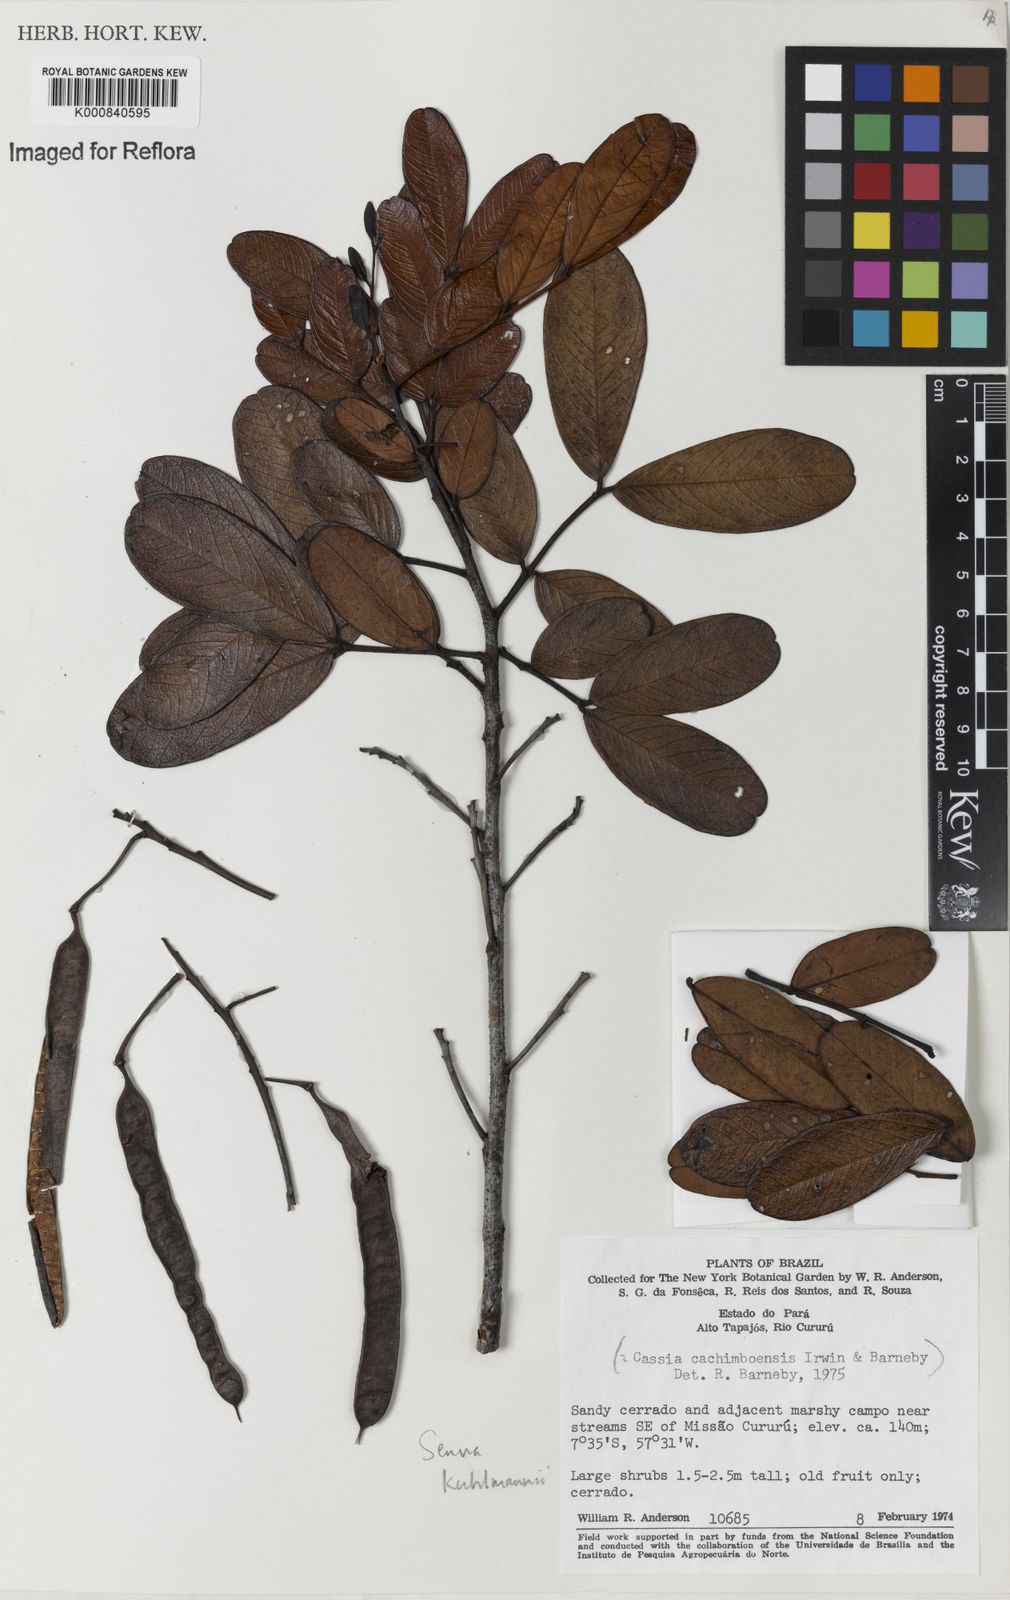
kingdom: Plantae
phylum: Tracheophyta
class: Magnoliopsida
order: Fabales
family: Fabaceae
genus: Senna
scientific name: Senna
